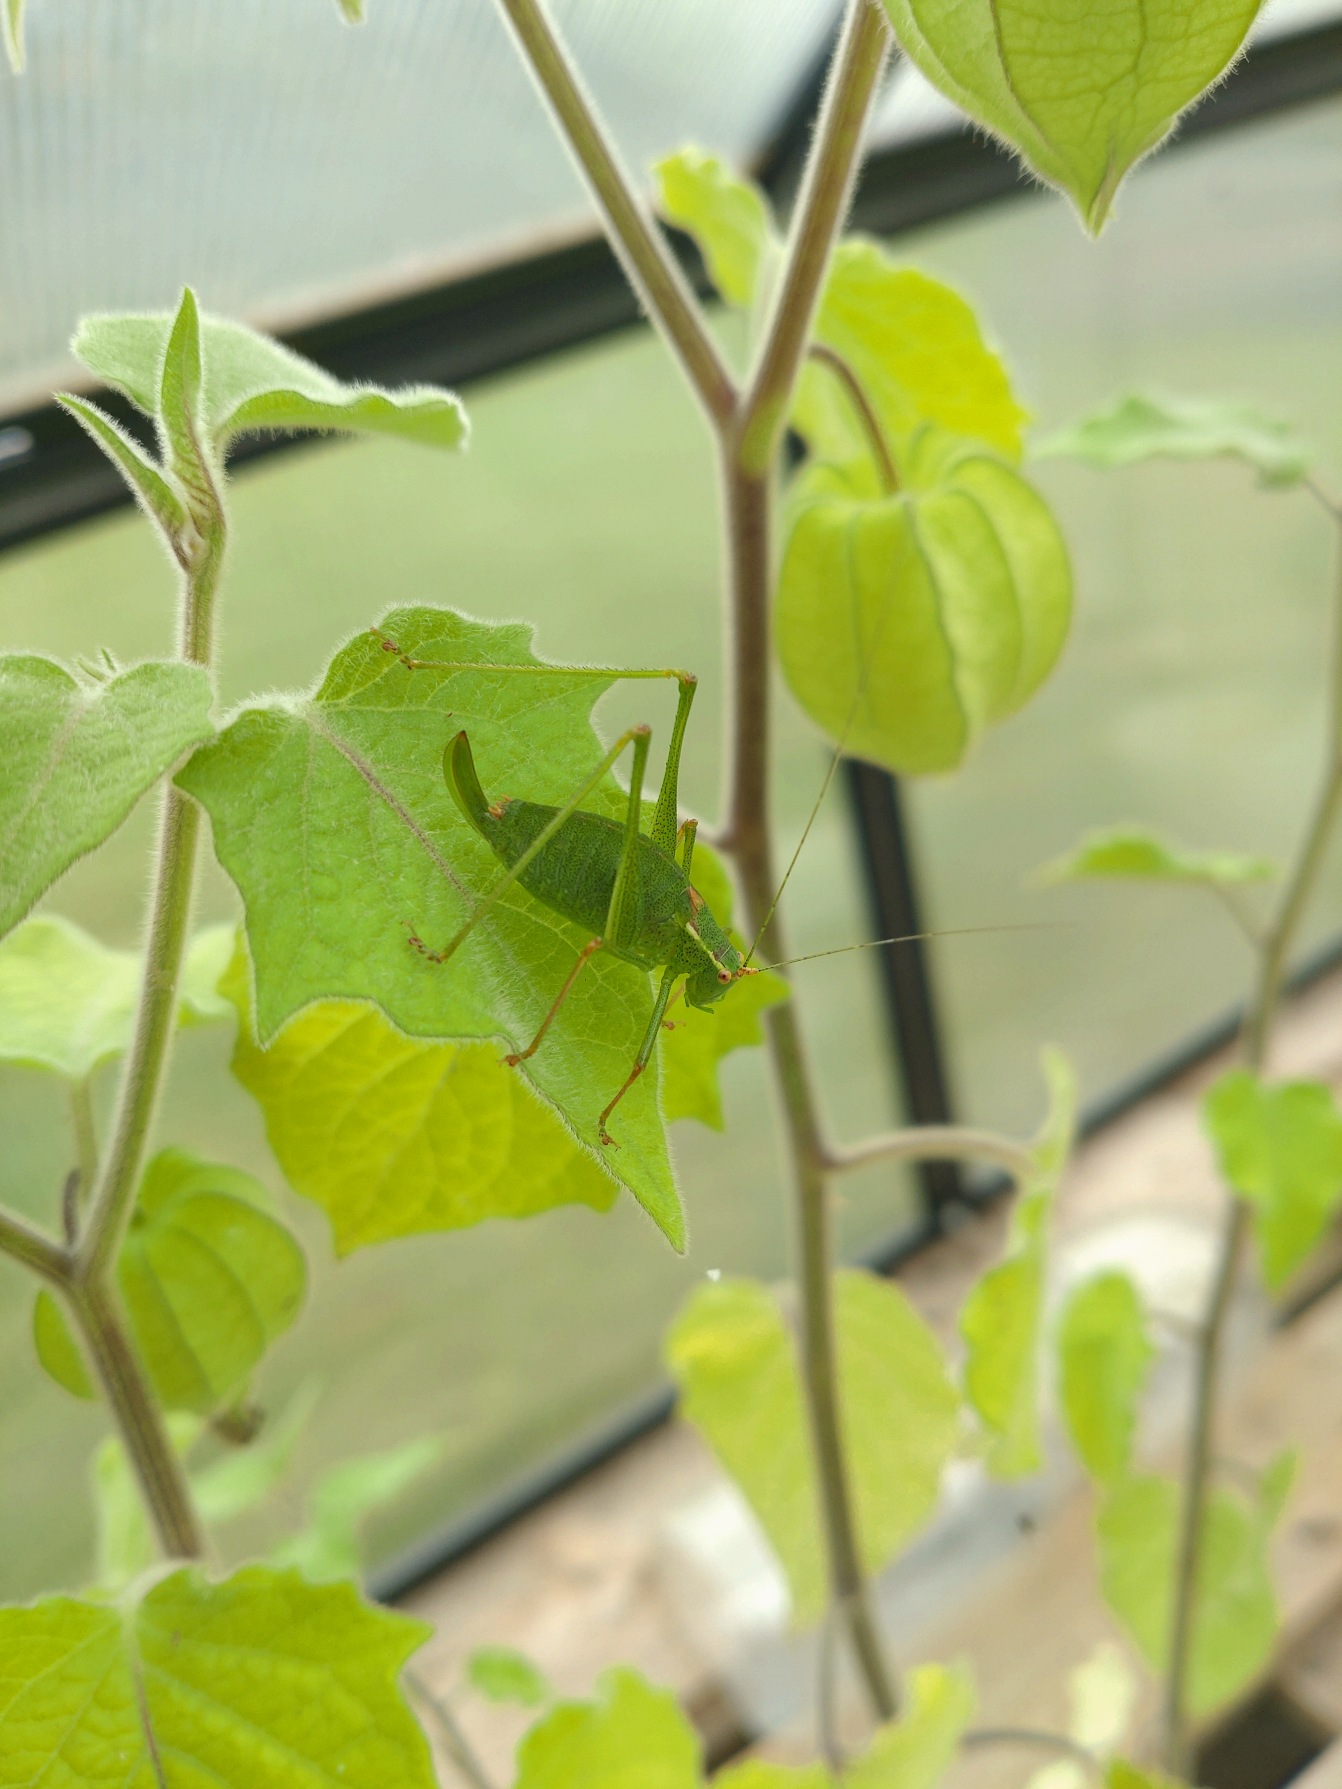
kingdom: Animalia
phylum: Arthropoda
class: Insecta
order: Orthoptera
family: Tettigoniidae
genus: Leptophyes
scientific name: Leptophyes punctatissima
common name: Krumknivgræshoppe
